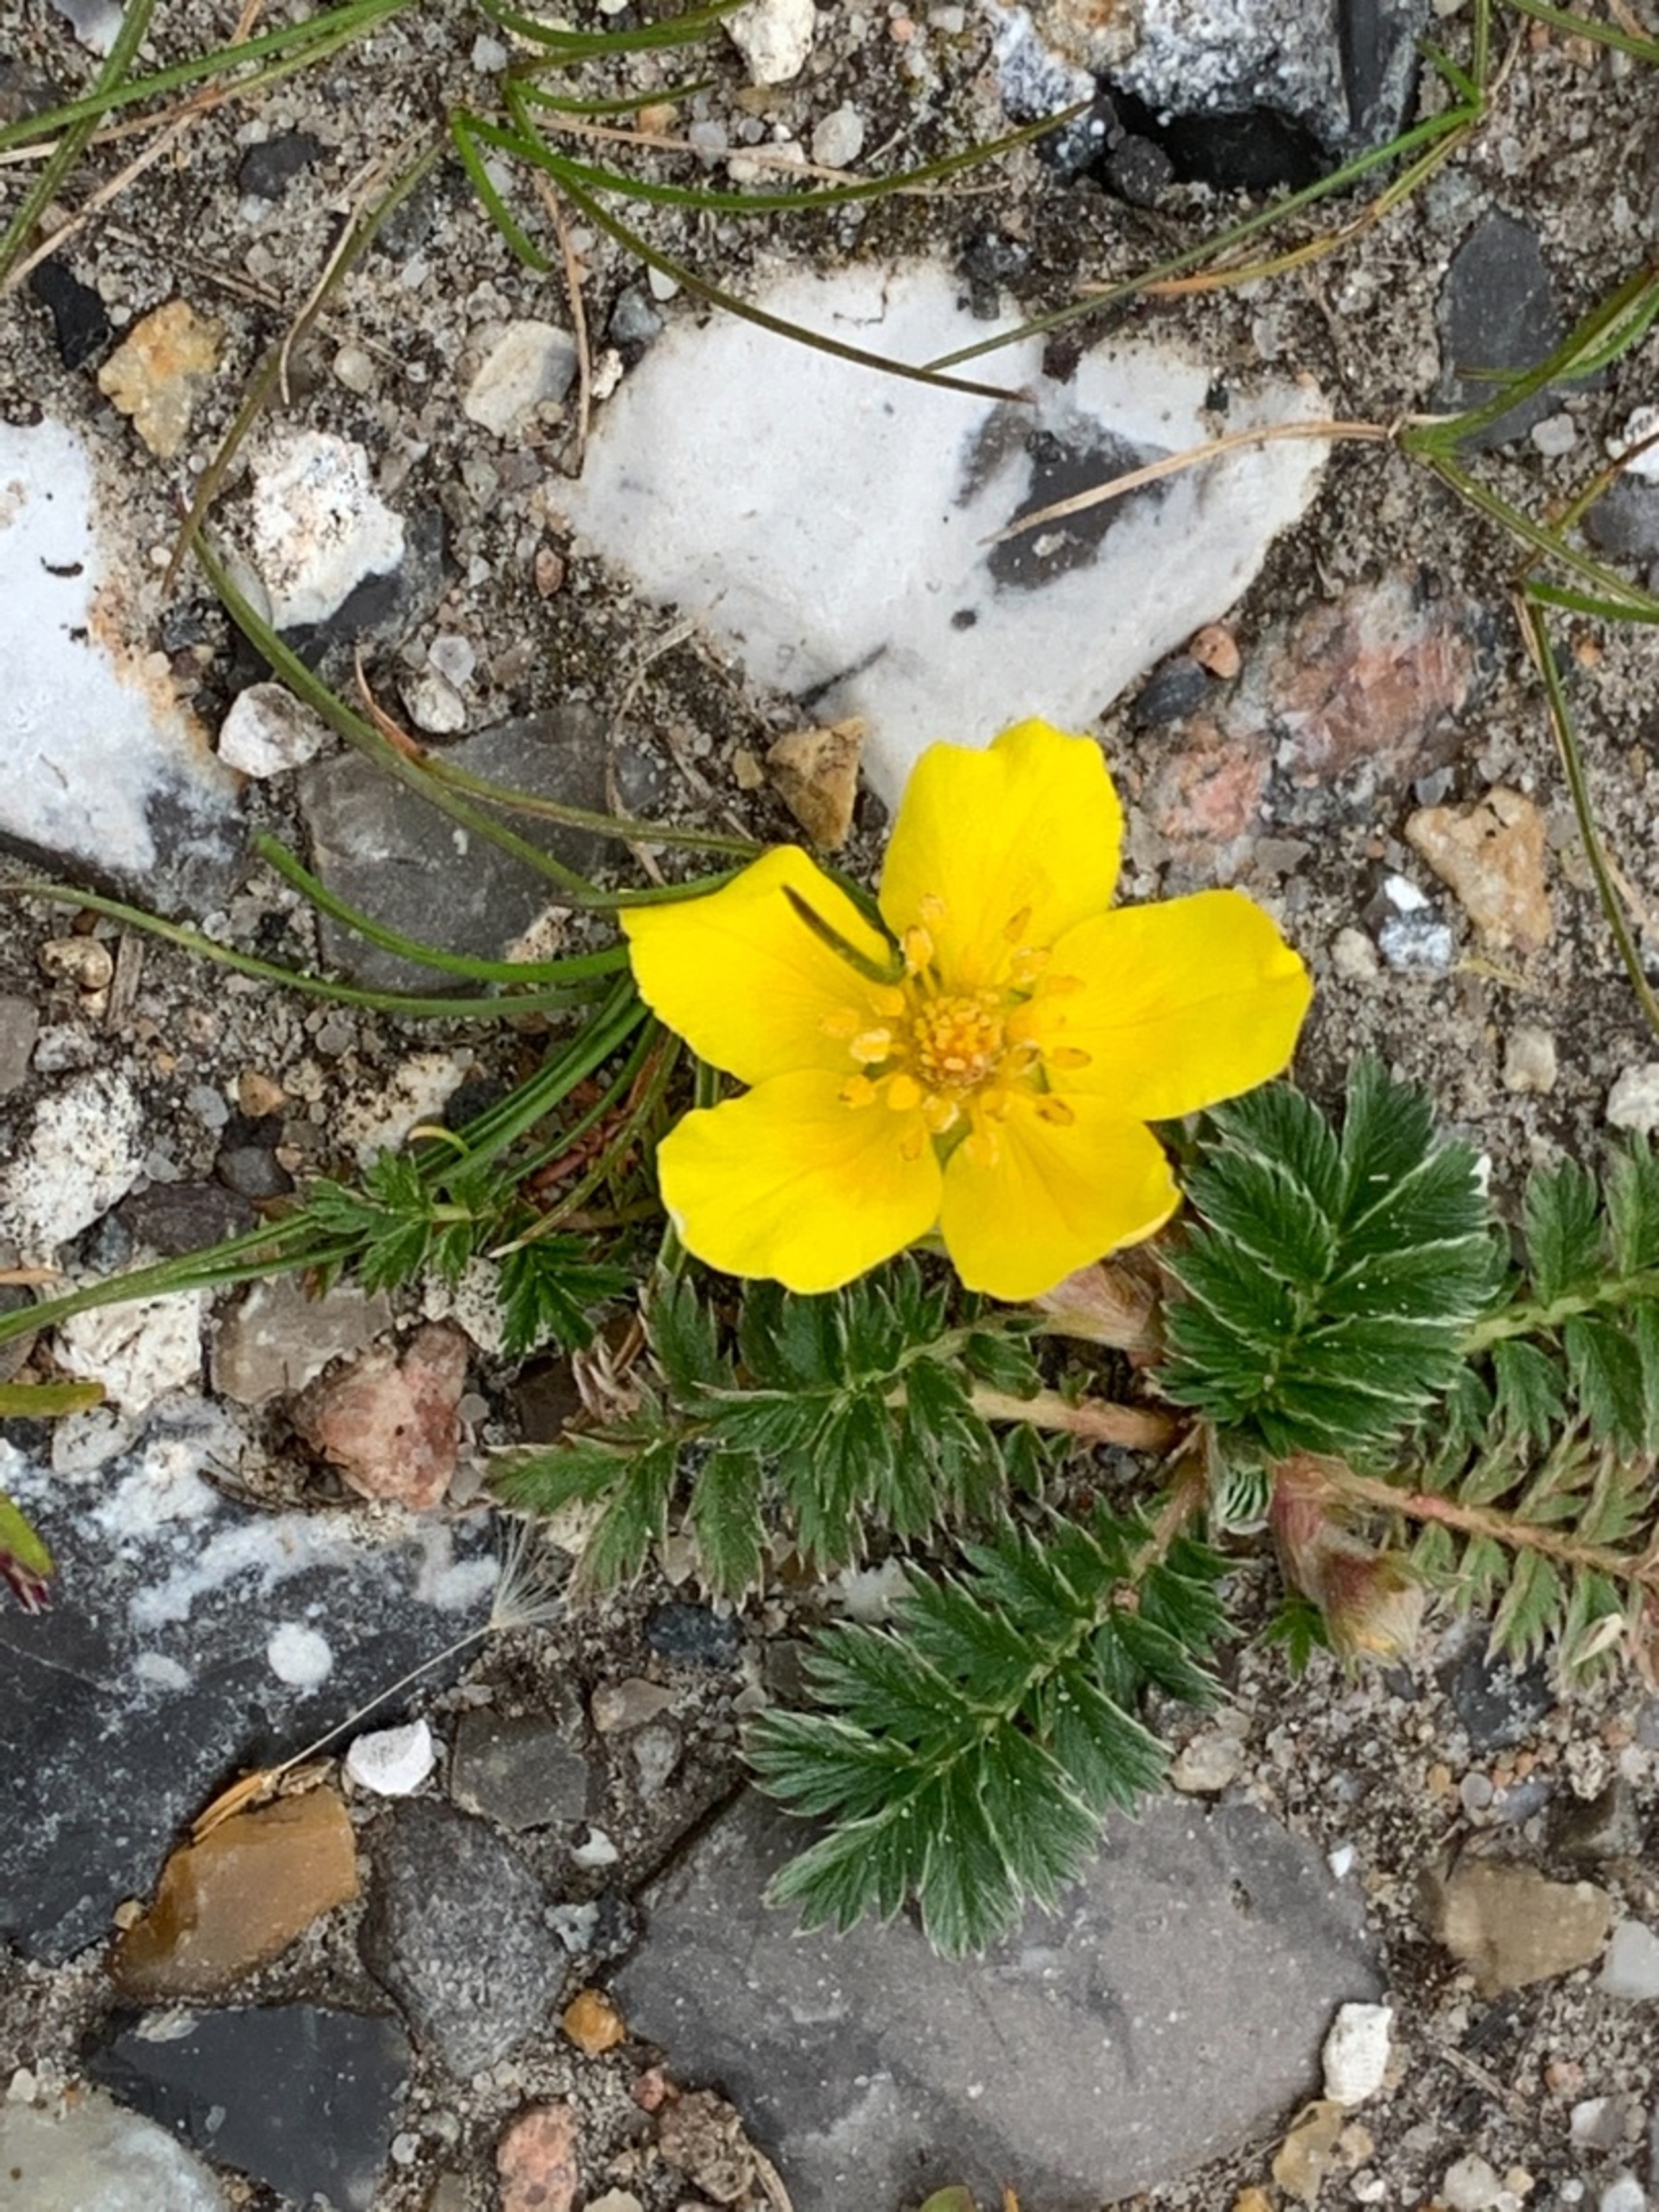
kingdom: Plantae
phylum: Tracheophyta
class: Magnoliopsida
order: Rosales
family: Rosaceae
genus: Argentina
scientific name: Argentina anserina
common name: Gåsepotentil
